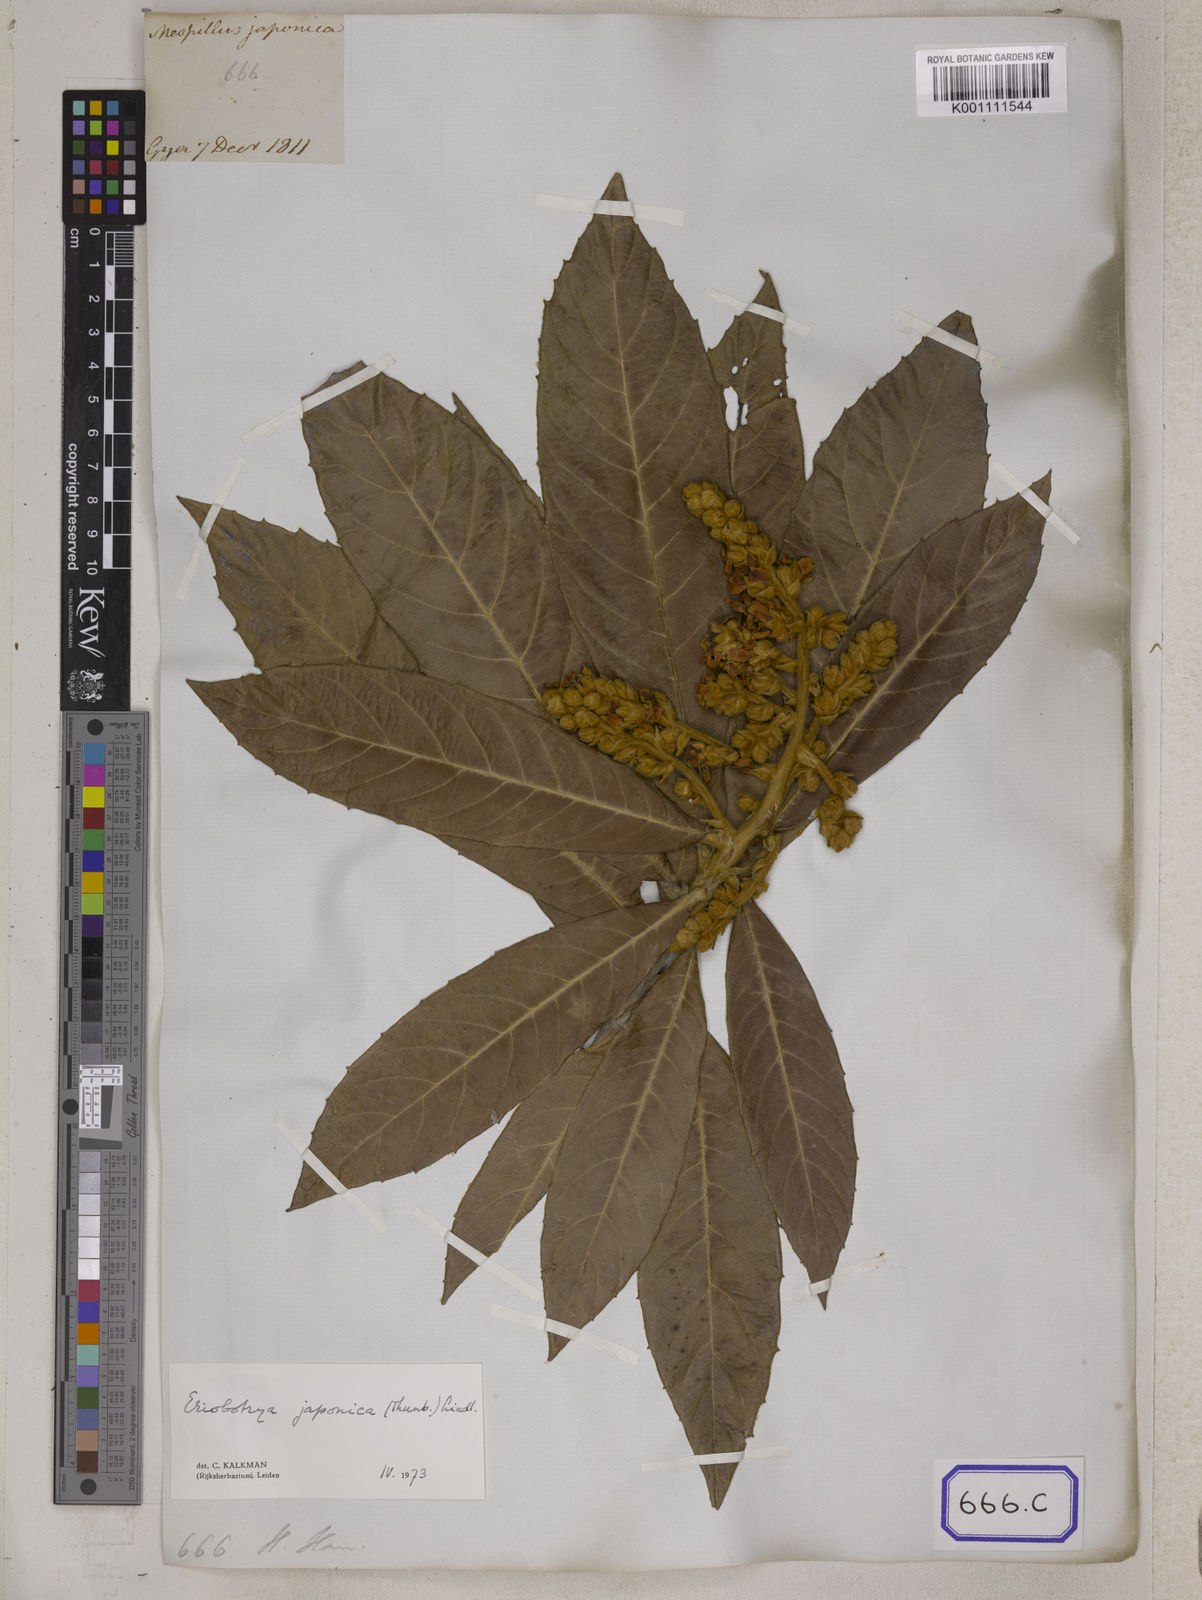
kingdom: Plantae
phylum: Tracheophyta
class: Magnoliopsida
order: Rosales
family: Rosaceae
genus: Rhaphiolepis
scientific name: Rhaphiolepis bibas
